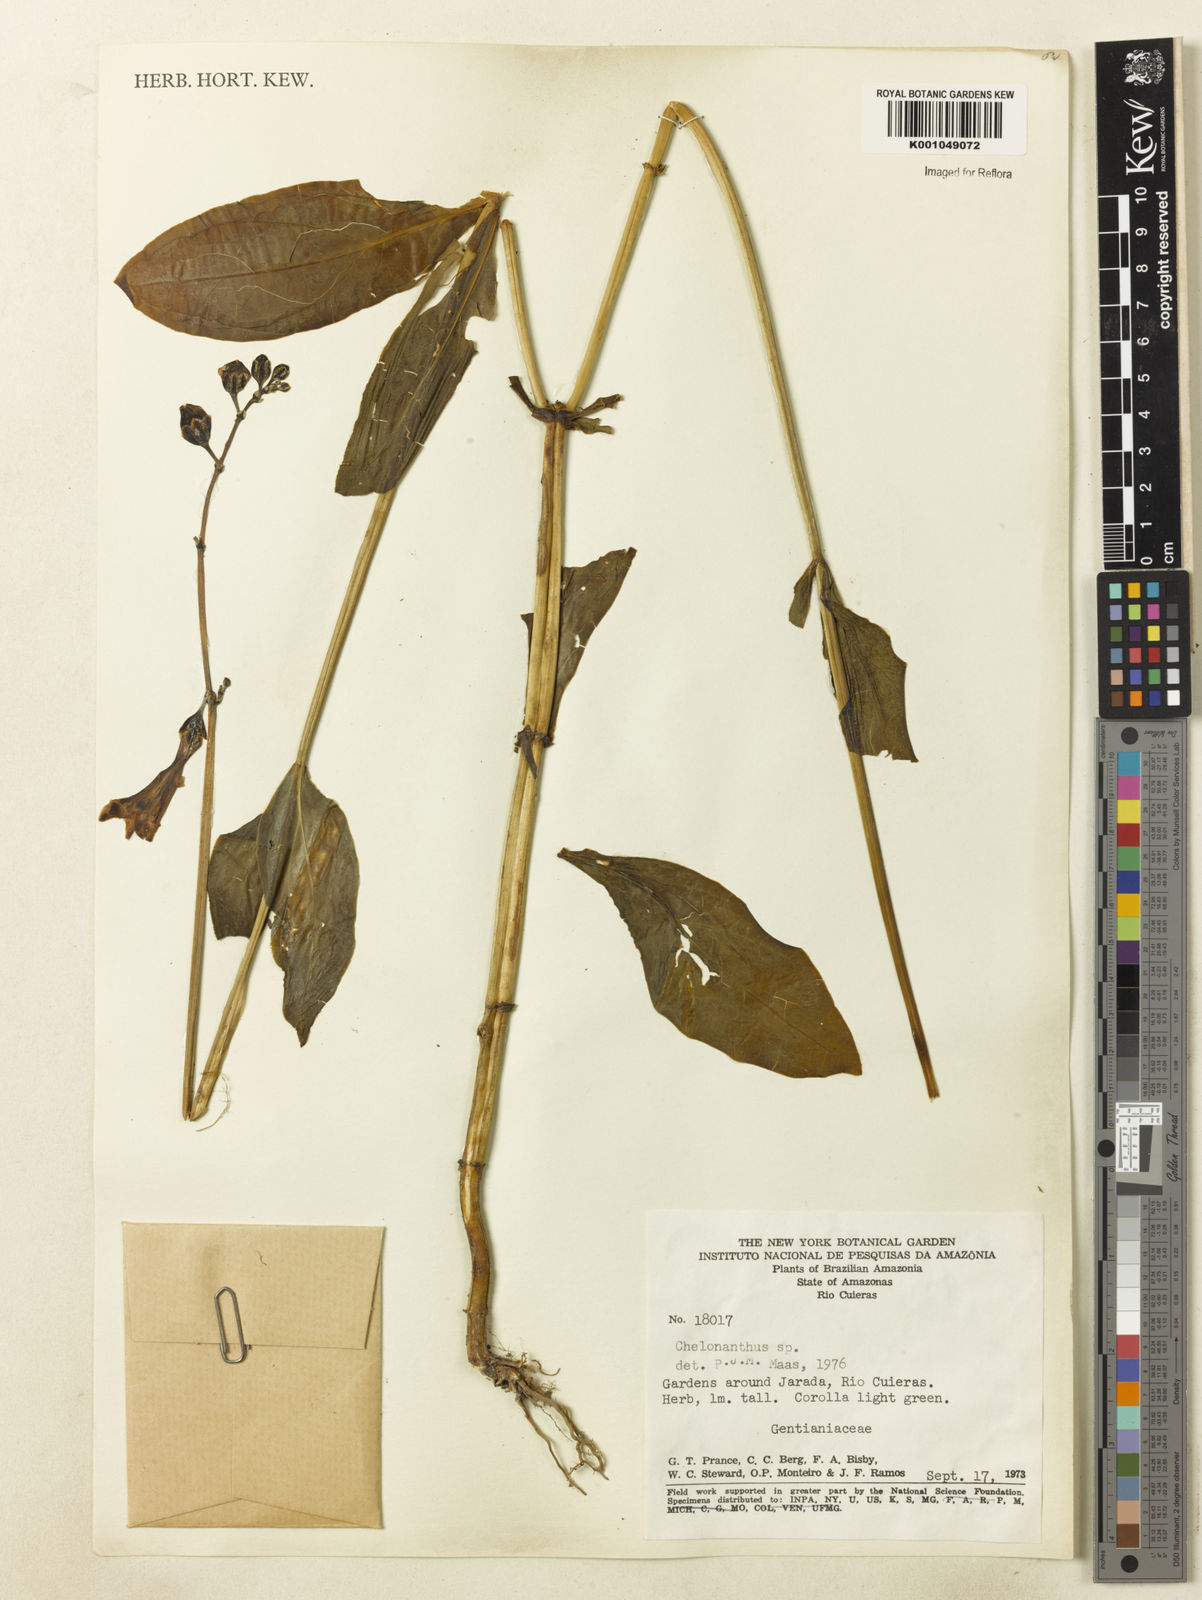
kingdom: Plantae
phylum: Tracheophyta
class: Magnoliopsida
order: Gentianales
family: Gentianaceae
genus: Chelonanthus
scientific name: Chelonanthus
